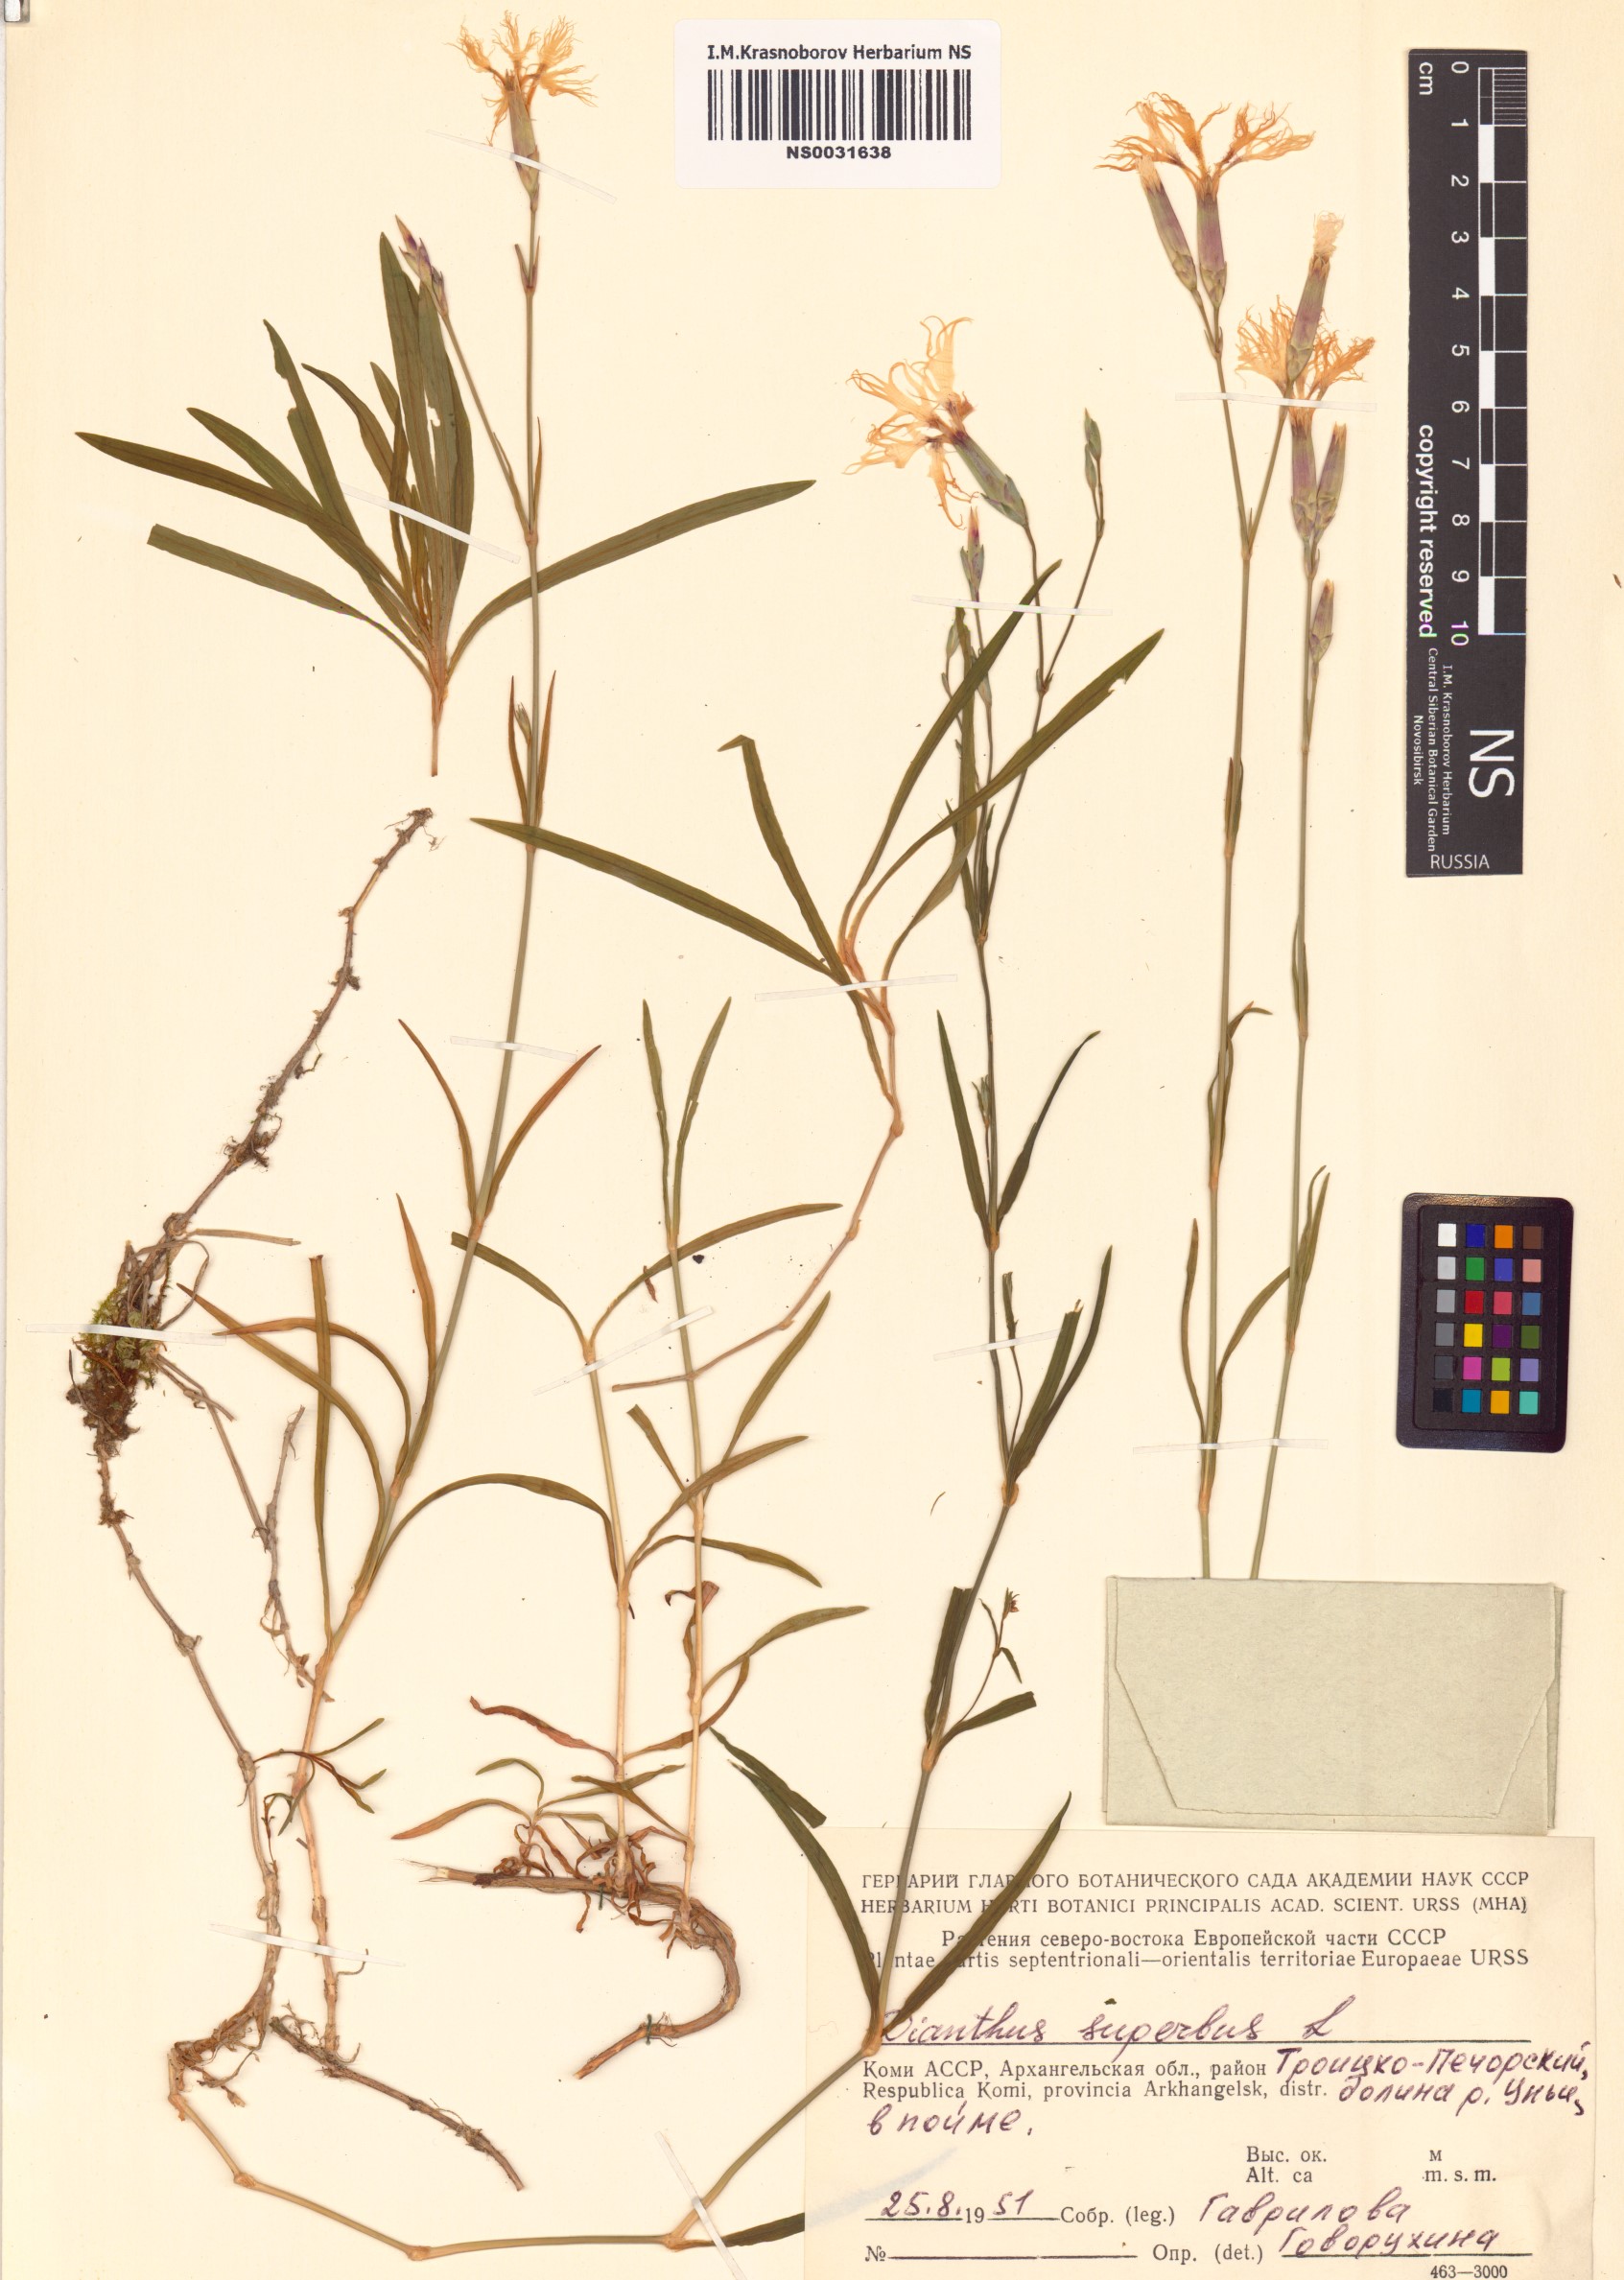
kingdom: Plantae
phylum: Tracheophyta
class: Magnoliopsida
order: Caryophyllales
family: Caryophyllaceae
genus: Dianthus
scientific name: Dianthus superbus
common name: Fringed pink
